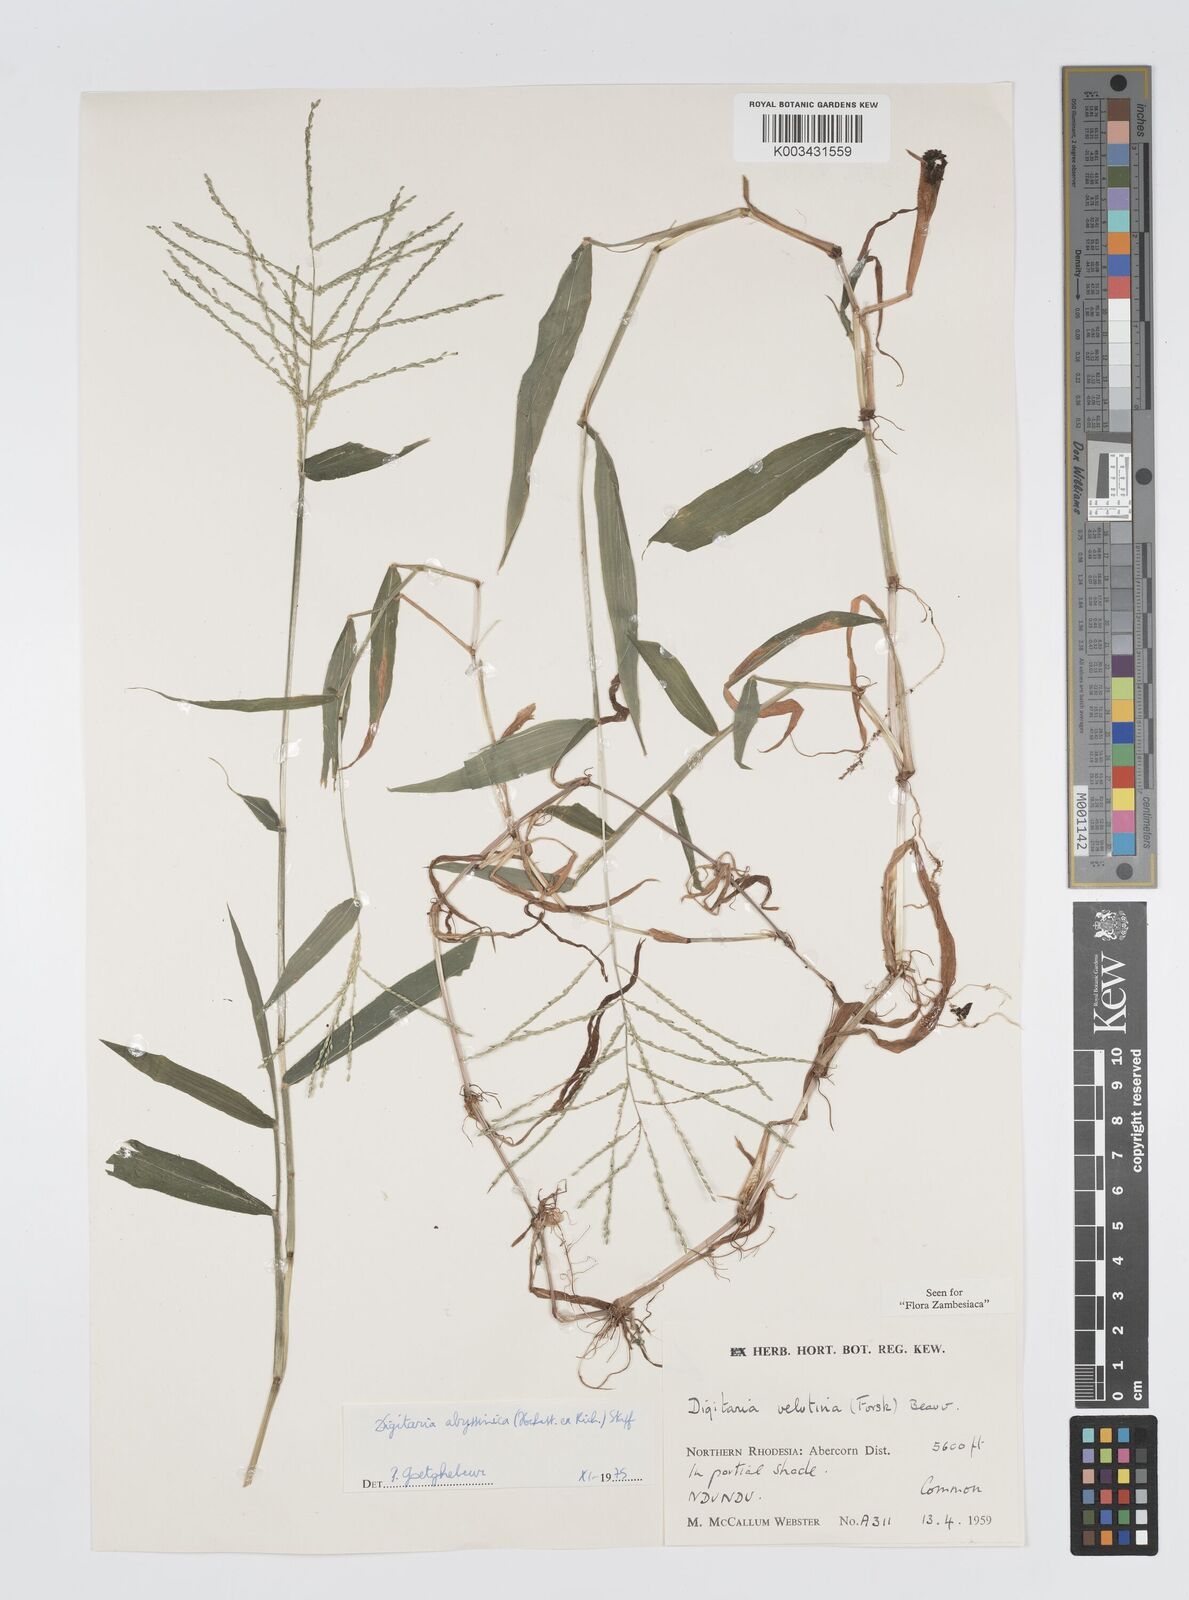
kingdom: Plantae
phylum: Tracheophyta
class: Liliopsida
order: Poales
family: Poaceae
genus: Digitaria
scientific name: Digitaria abyssinica
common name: African couchgrass
